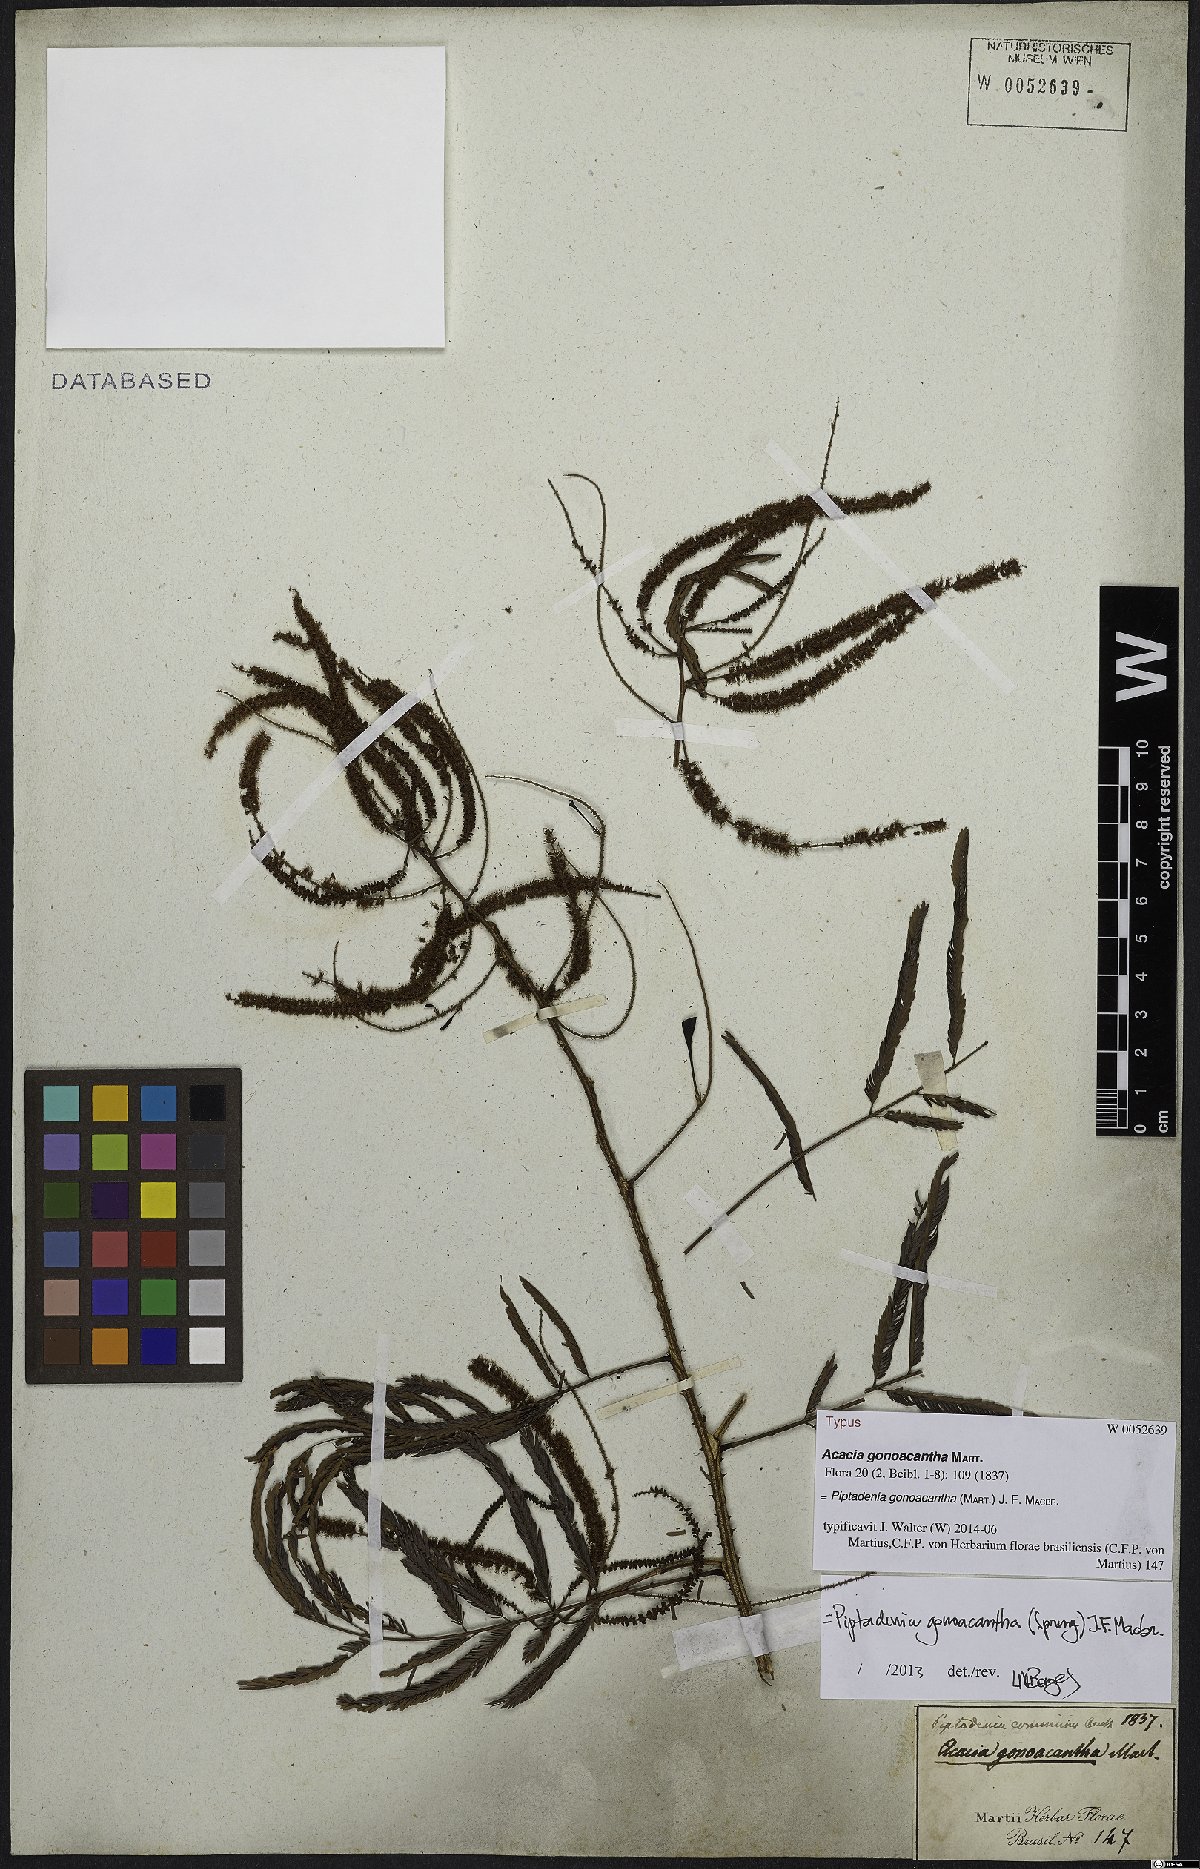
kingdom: Plantae
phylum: Tracheophyta
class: Magnoliopsida
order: Fabales
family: Fabaceae
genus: Piptadenia
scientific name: Piptadenia gonoacantha
